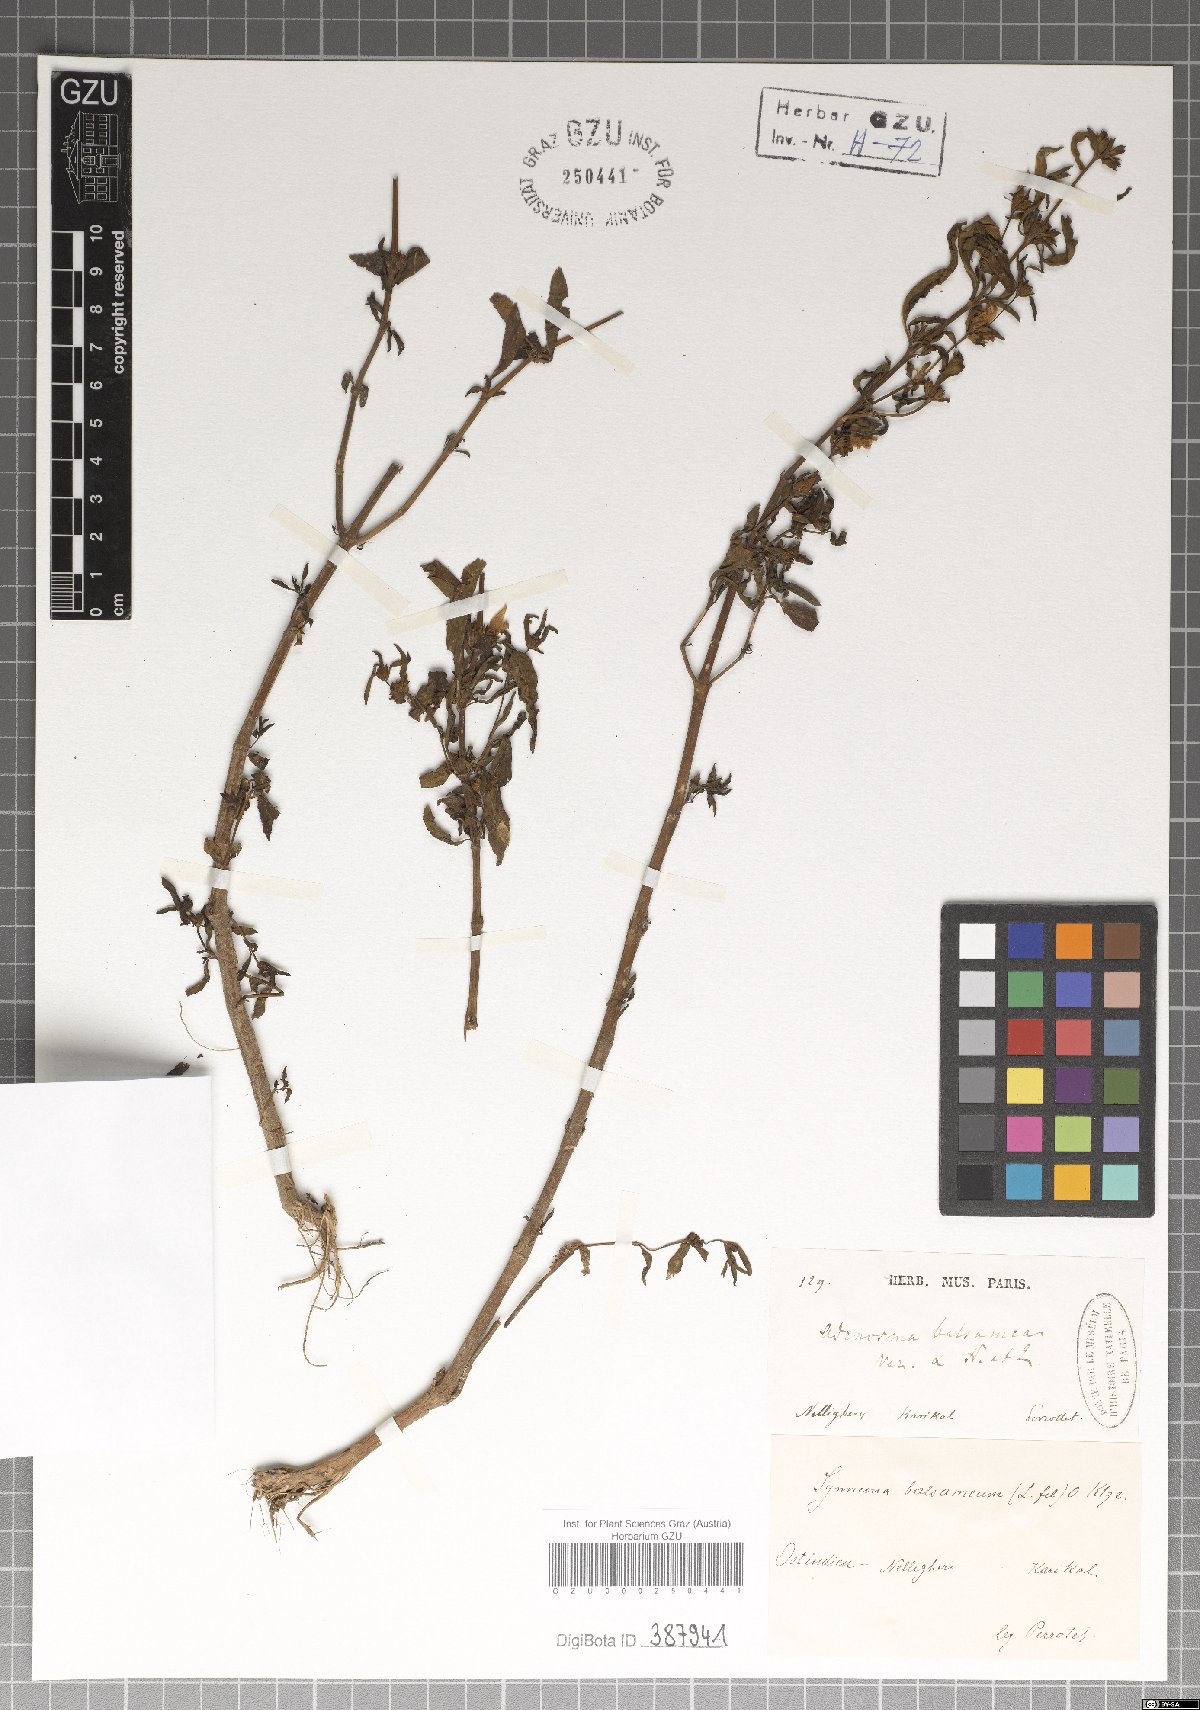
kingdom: Plantae
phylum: Tracheophyta
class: Magnoliopsida
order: Lamiales
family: Acanthaceae
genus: Hygrophila
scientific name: Hygrophila balsamica
